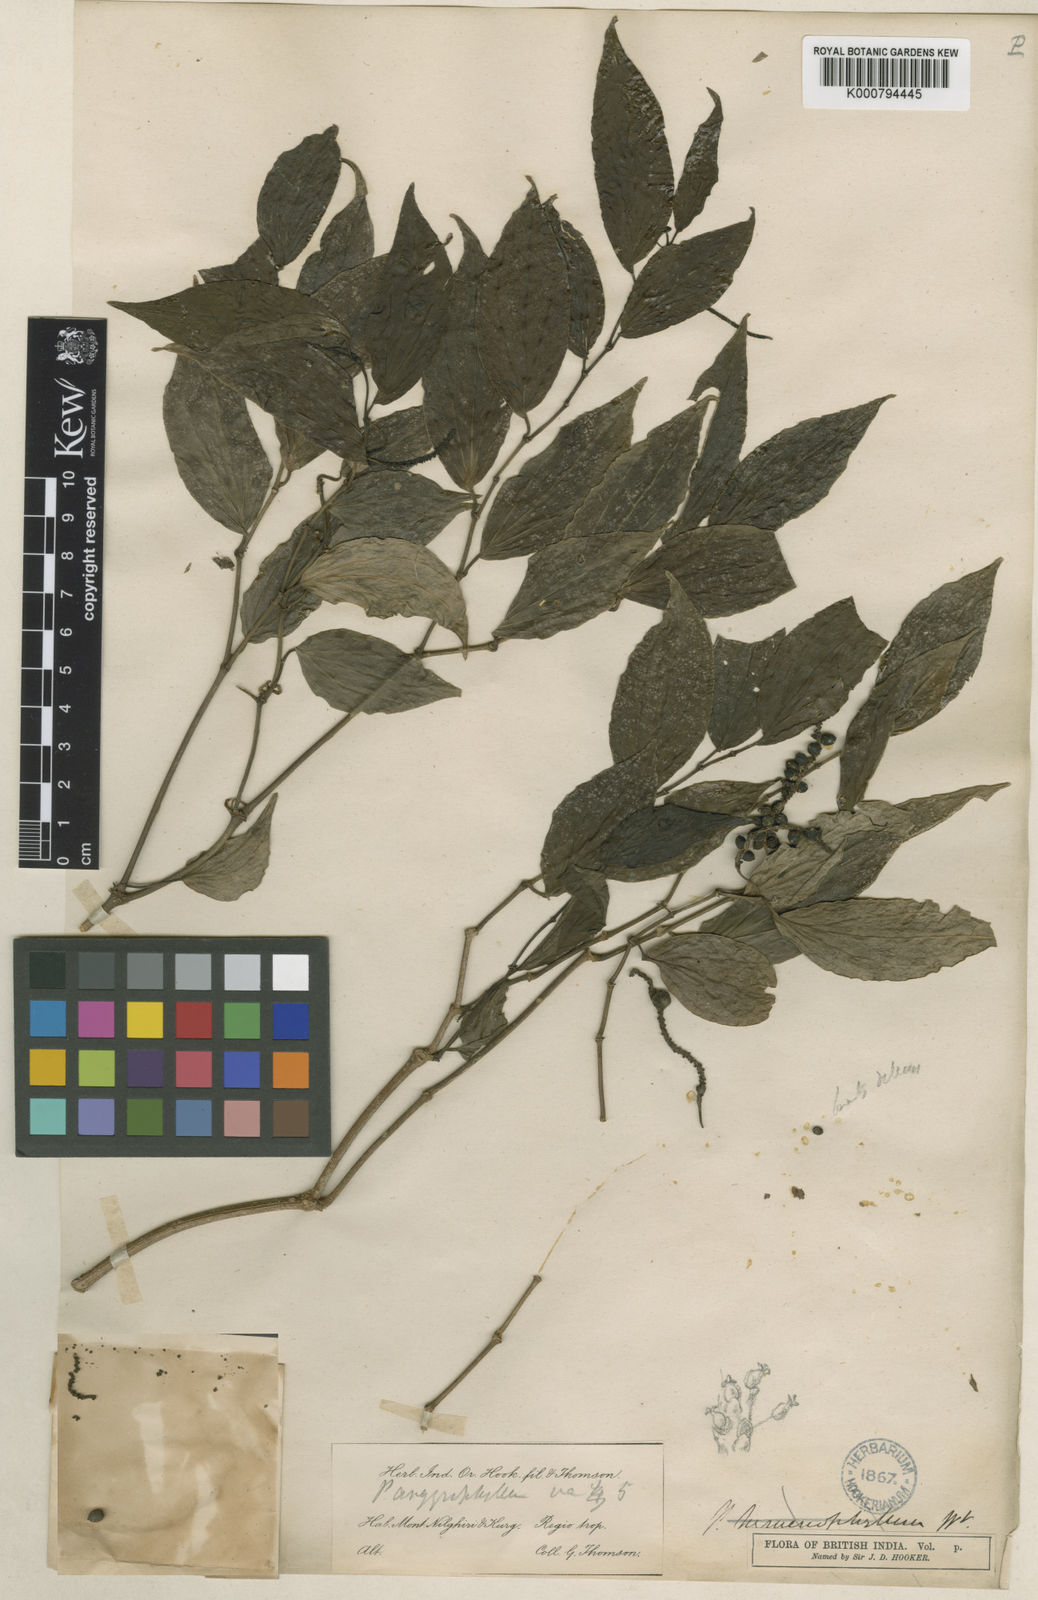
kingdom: Plantae
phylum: Tracheophyta
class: Magnoliopsida
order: Piperales
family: Piperaceae
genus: Piper
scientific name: Piper argyrophyllum
